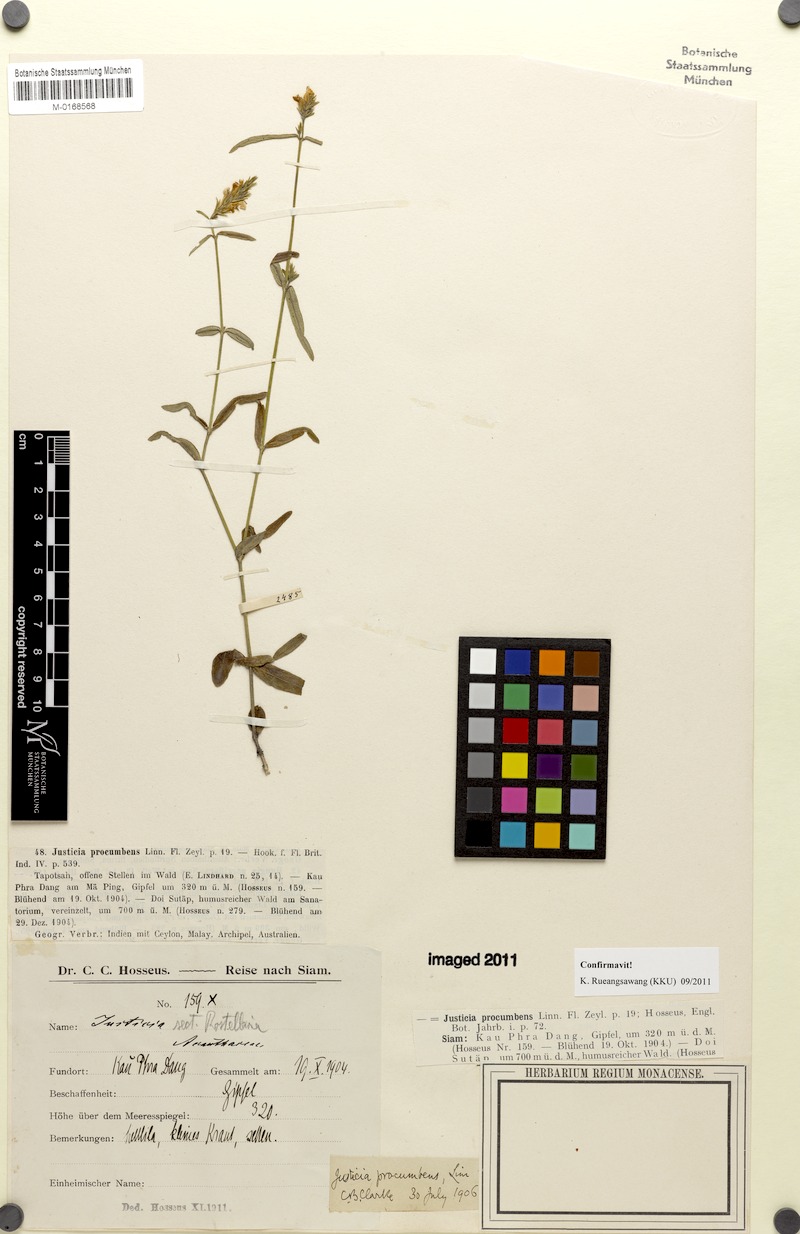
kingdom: Plantae
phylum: Tracheophyta
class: Magnoliopsida
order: Lamiales
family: Acanthaceae
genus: Rostellularia
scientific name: Rostellularia procumbens
